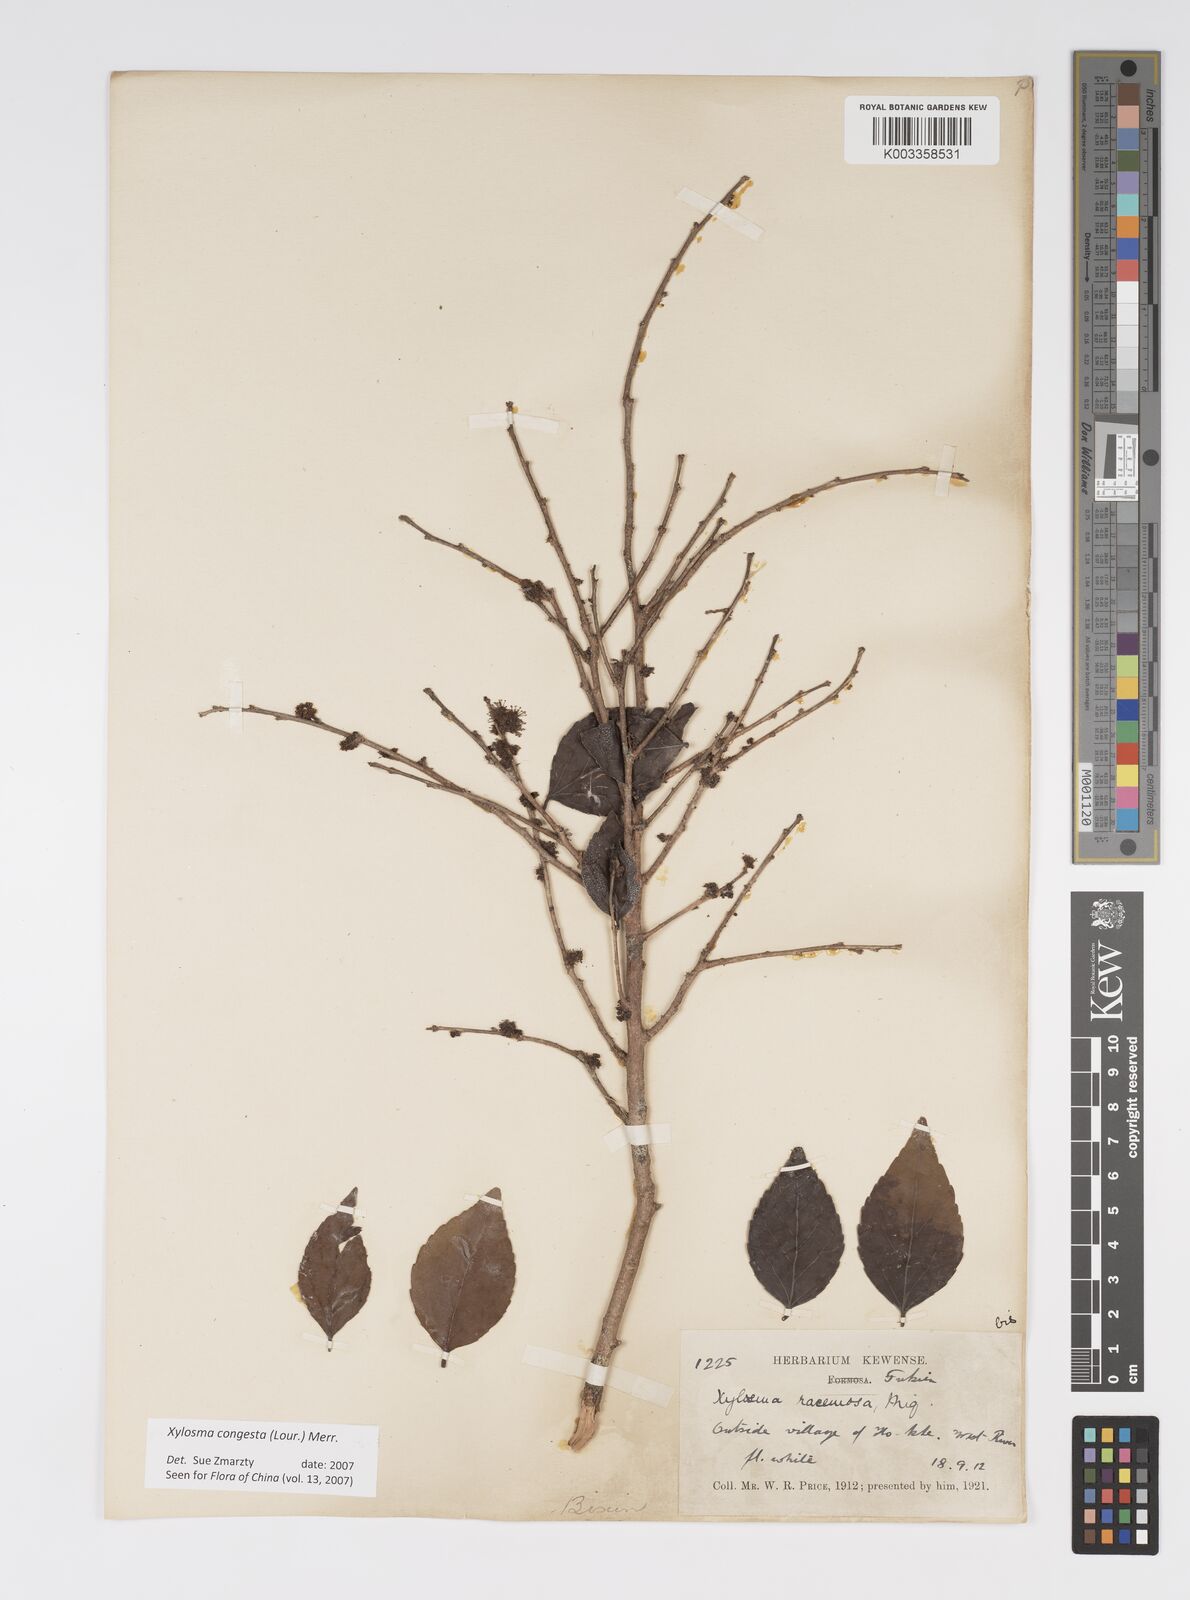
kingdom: Plantae
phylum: Tracheophyta
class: Magnoliopsida
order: Malpighiales
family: Salicaceae
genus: Xylosma
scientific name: Xylosma racemosum
